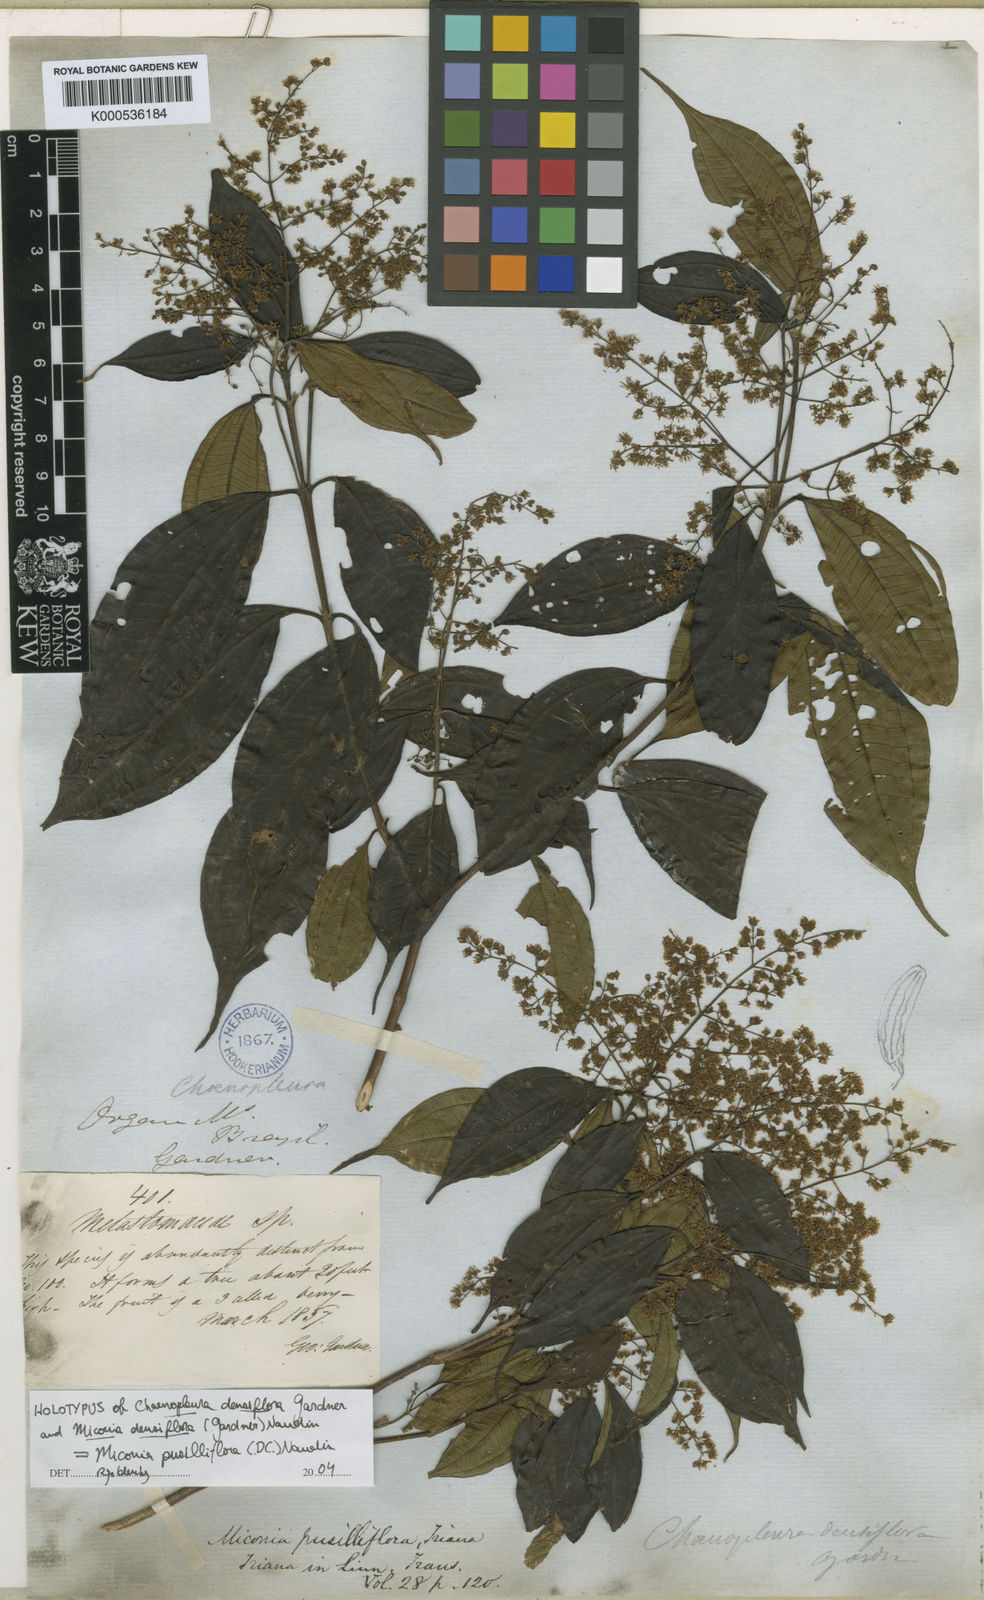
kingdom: Plantae
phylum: Tracheophyta
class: Magnoliopsida
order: Myrtales
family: Melastomataceae
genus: Miconia
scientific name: Miconia pusilliflora
